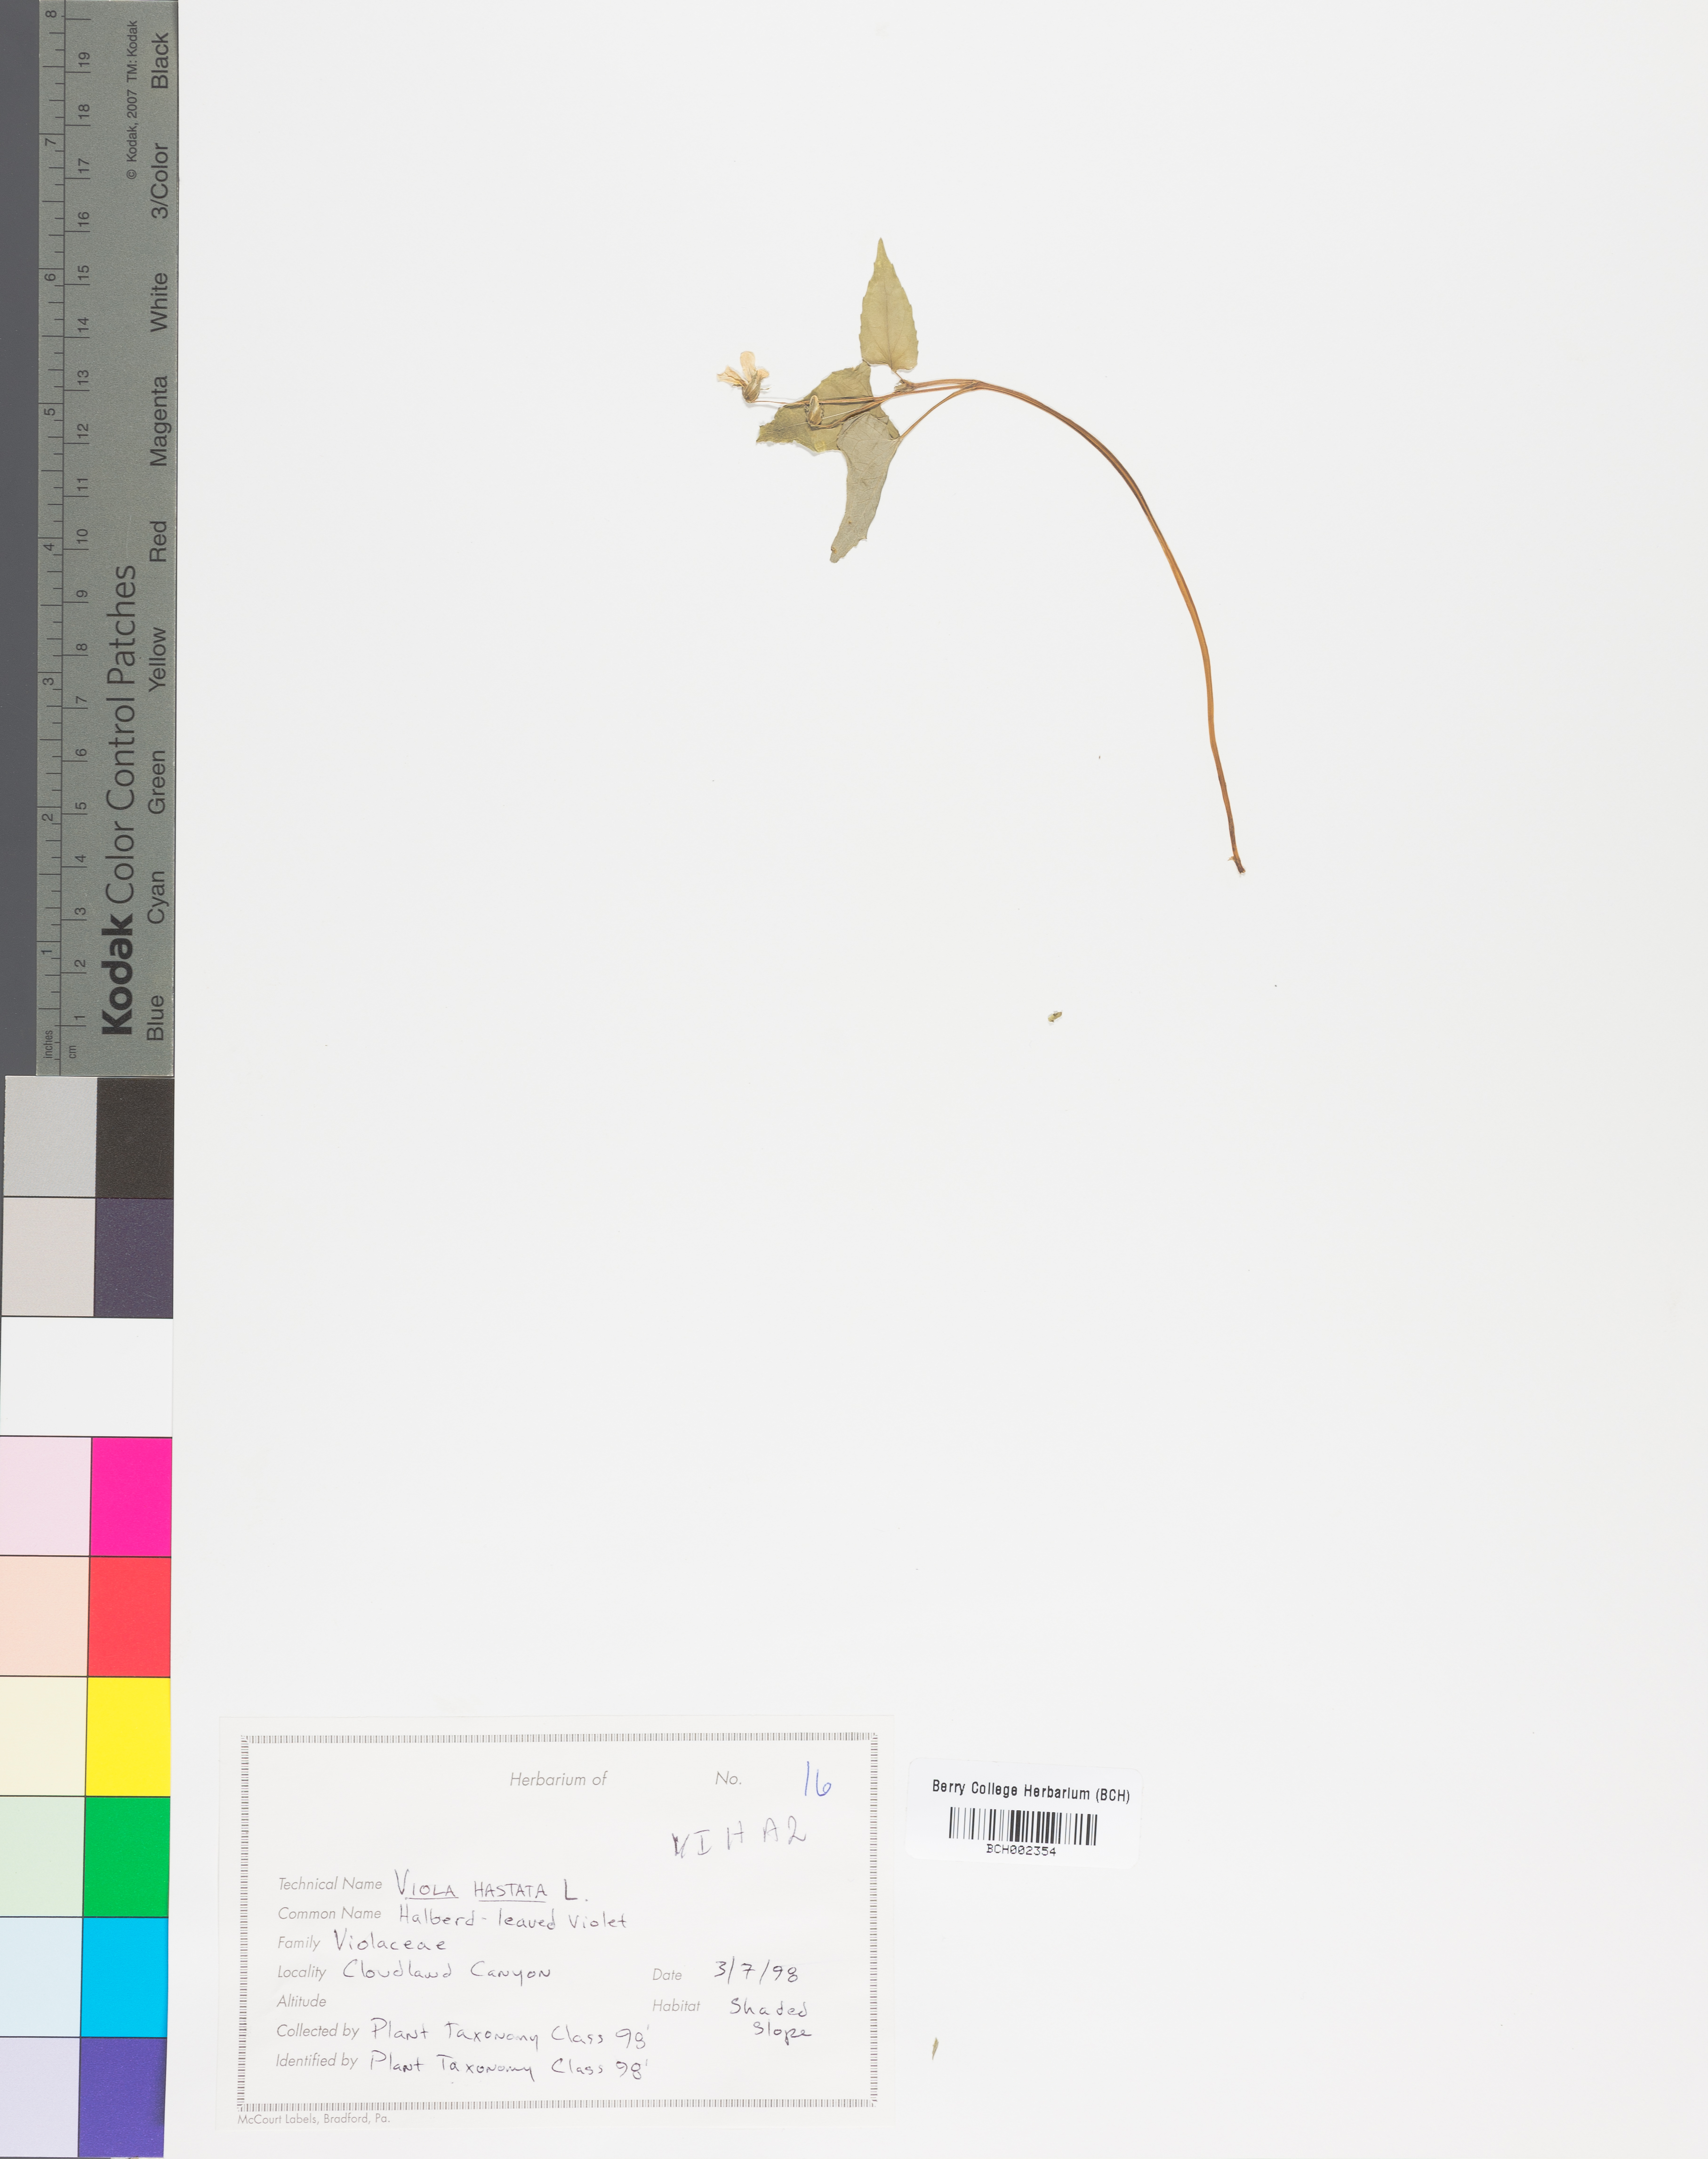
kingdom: Plantae
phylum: Tracheophyta
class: Magnoliopsida
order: Malpighiales
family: Violaceae
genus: Viola
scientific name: Viola hastata
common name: Spear-leaf violet
